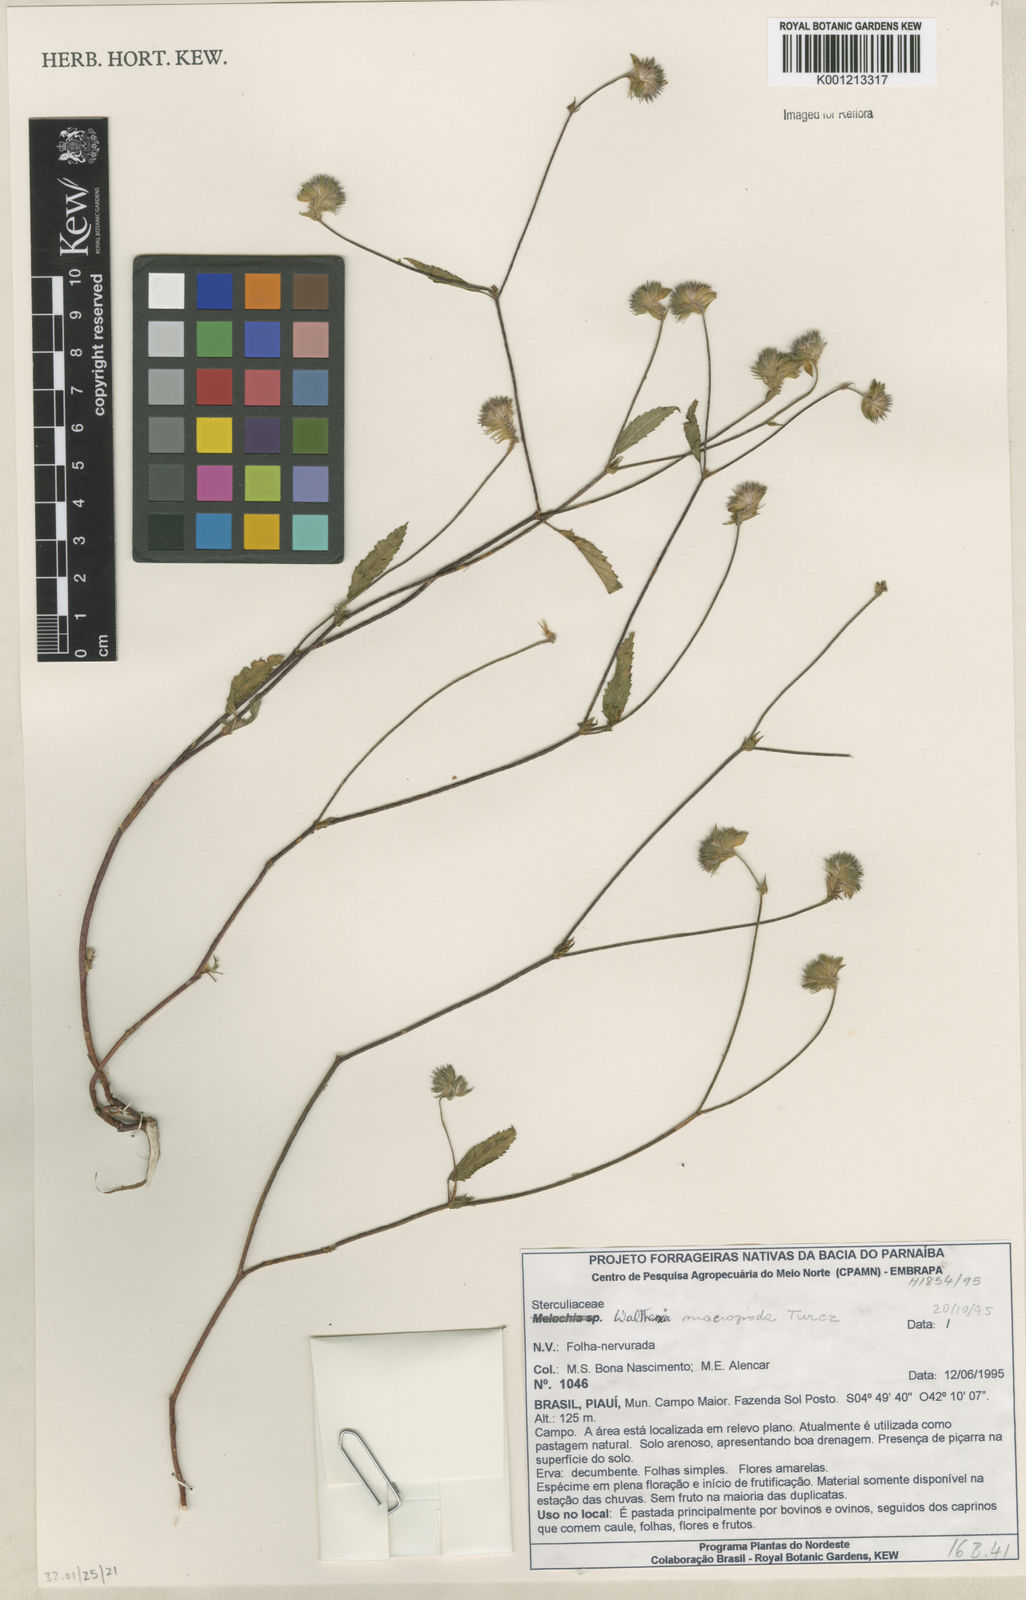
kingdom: Plantae
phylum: Tracheophyta
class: Magnoliopsida
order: Malvales
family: Malvaceae
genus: Waltheria
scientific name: Waltheria bracteosa
